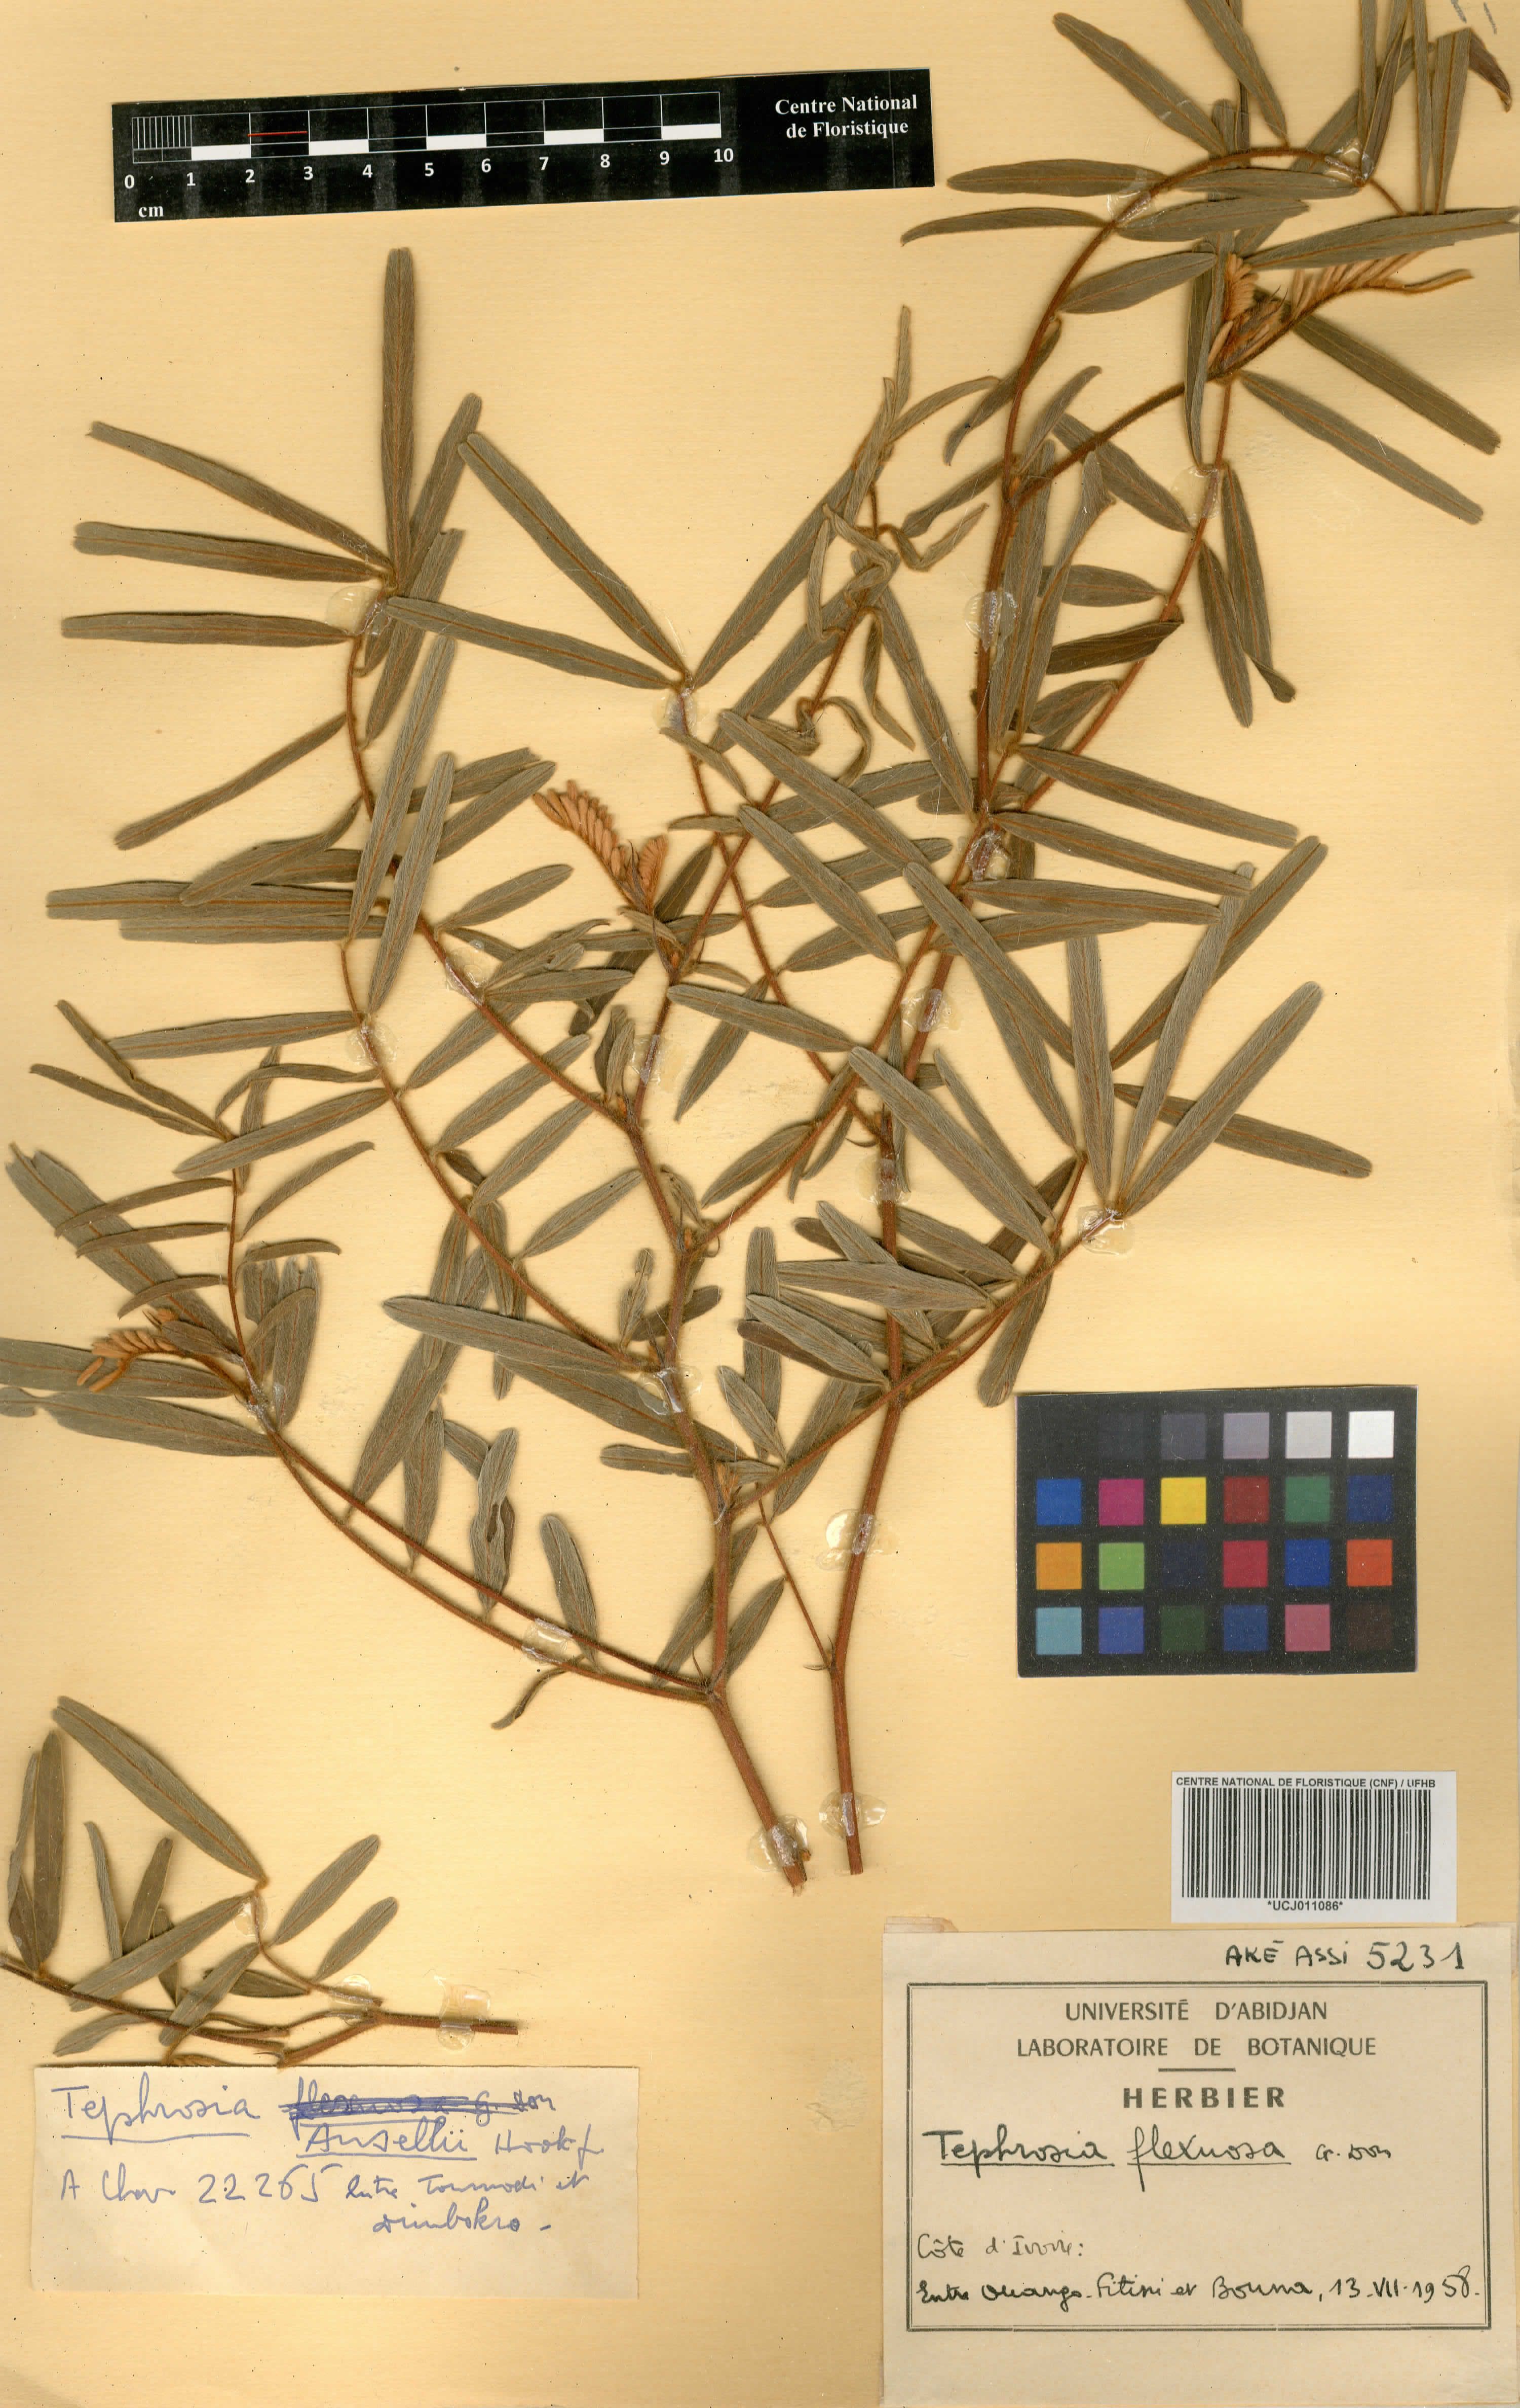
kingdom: Plantae
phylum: Tracheophyta
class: Magnoliopsida
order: Fabales
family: Fabaceae
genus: Tephrosia
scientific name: Tephrosia flexuosa
